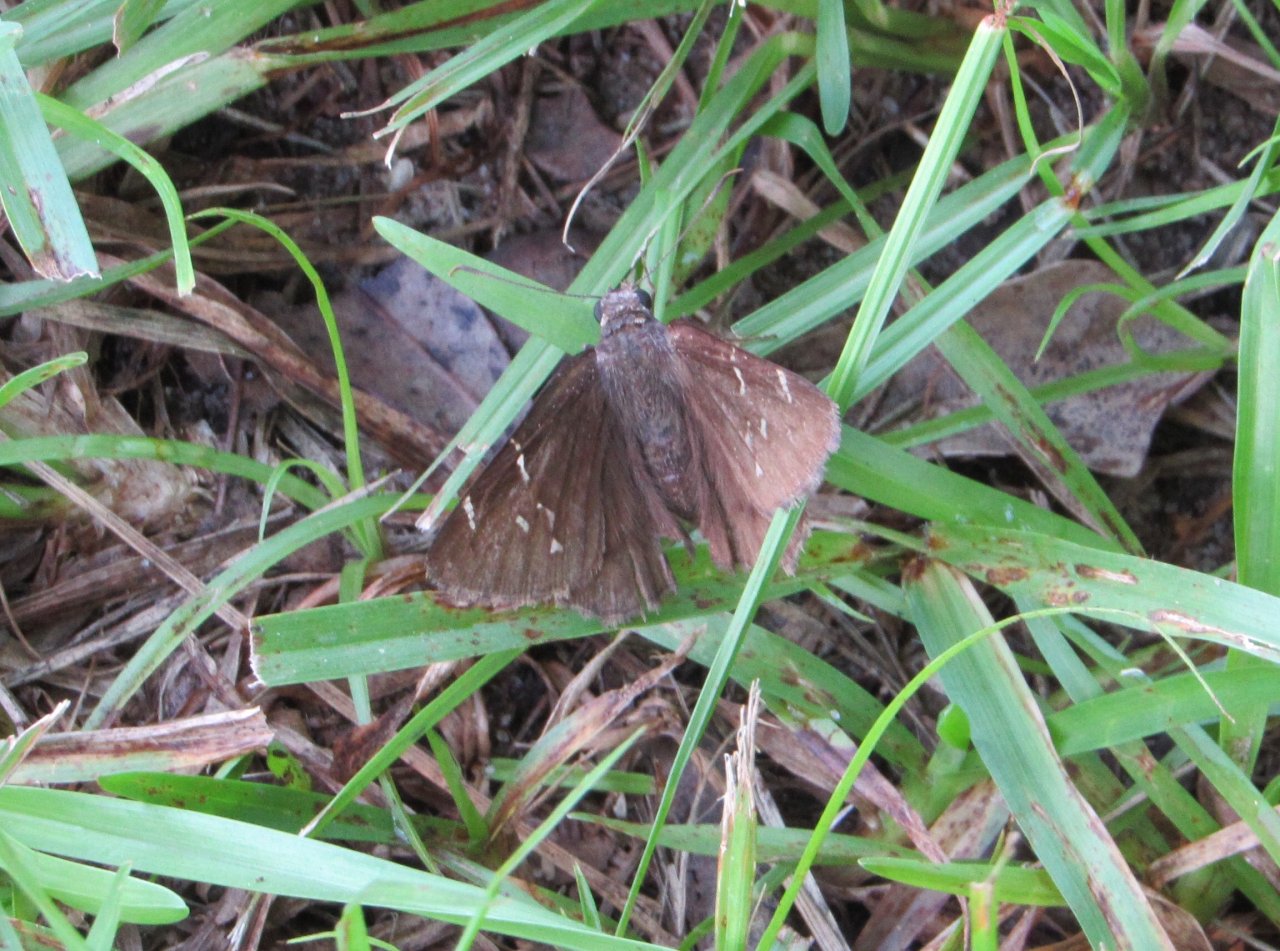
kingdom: Animalia
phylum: Arthropoda
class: Insecta
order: Lepidoptera
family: Hesperiidae
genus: Autochton
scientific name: Autochton
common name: Northern Cloudywing
